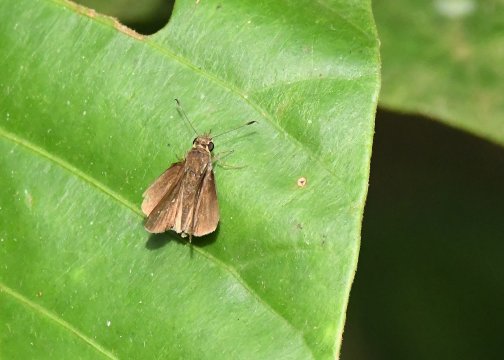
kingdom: Animalia
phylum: Arthropoda
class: Insecta
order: Lepidoptera
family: Hesperiidae
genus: Lerema
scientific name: Lerema ancillaris
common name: Liris Skipper
